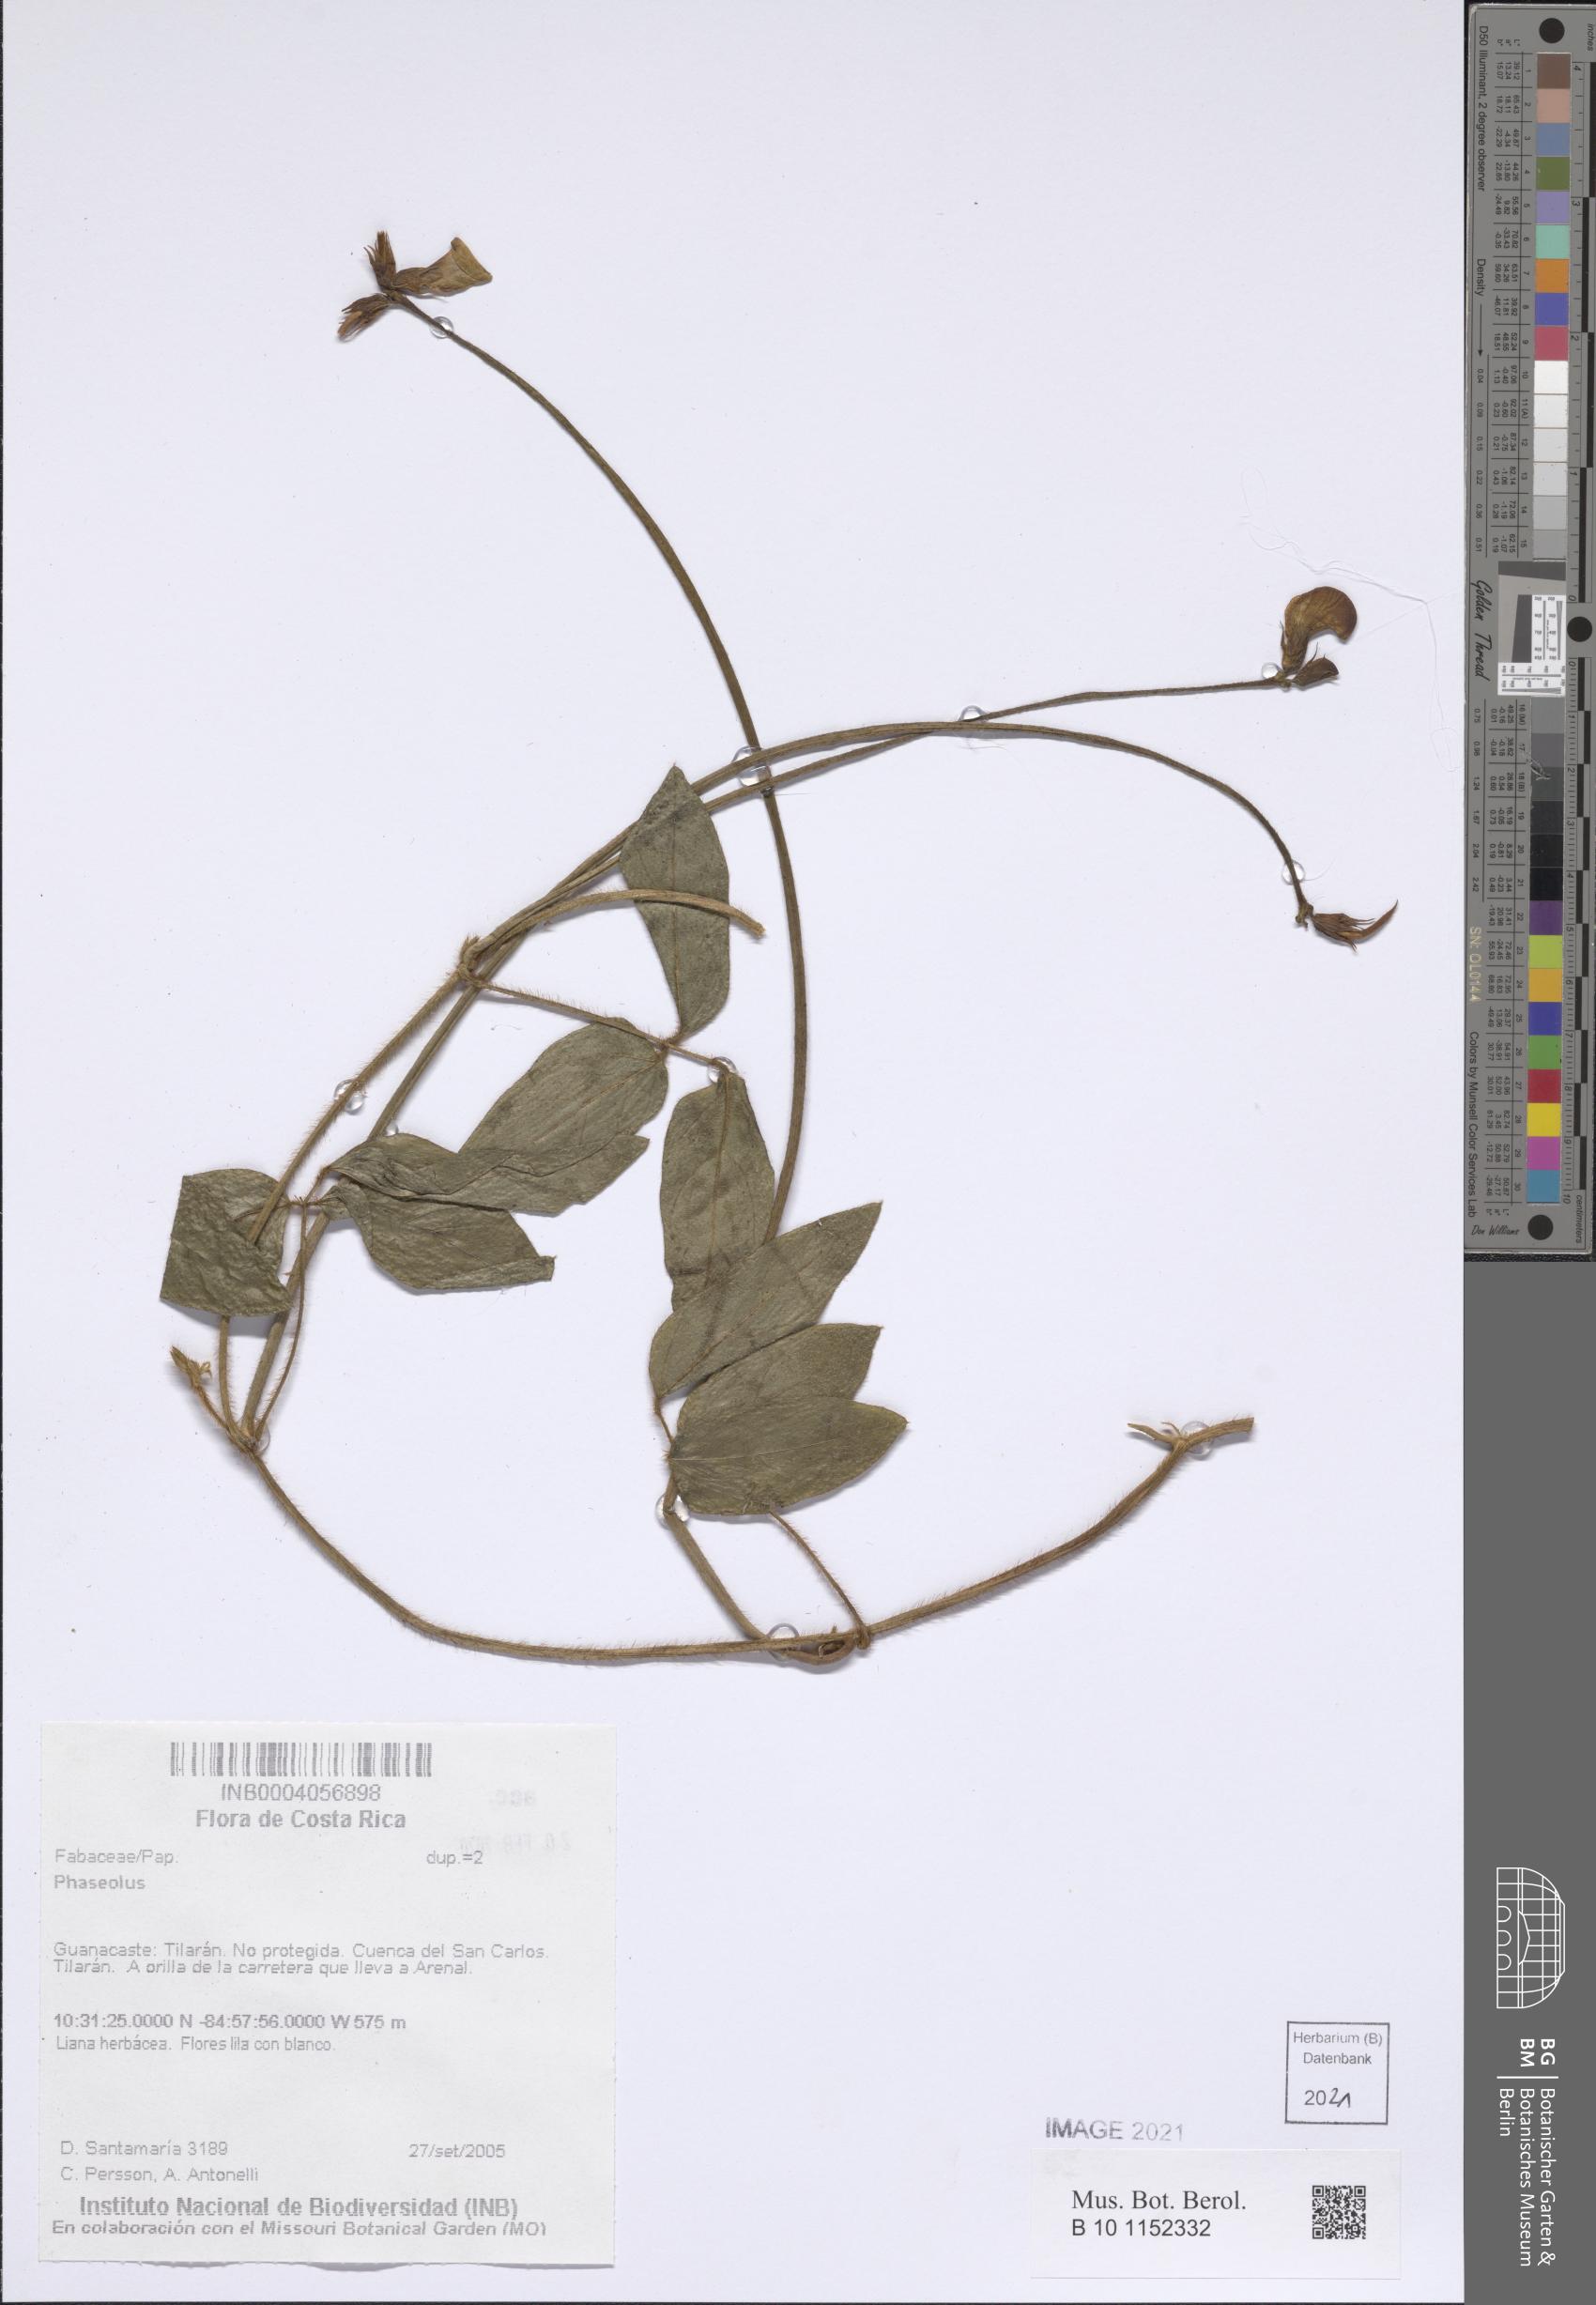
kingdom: Plantae
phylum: Tracheophyta
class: Magnoliopsida
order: Fabales
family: Fabaceae
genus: Phaseolus
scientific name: Phaseolus
